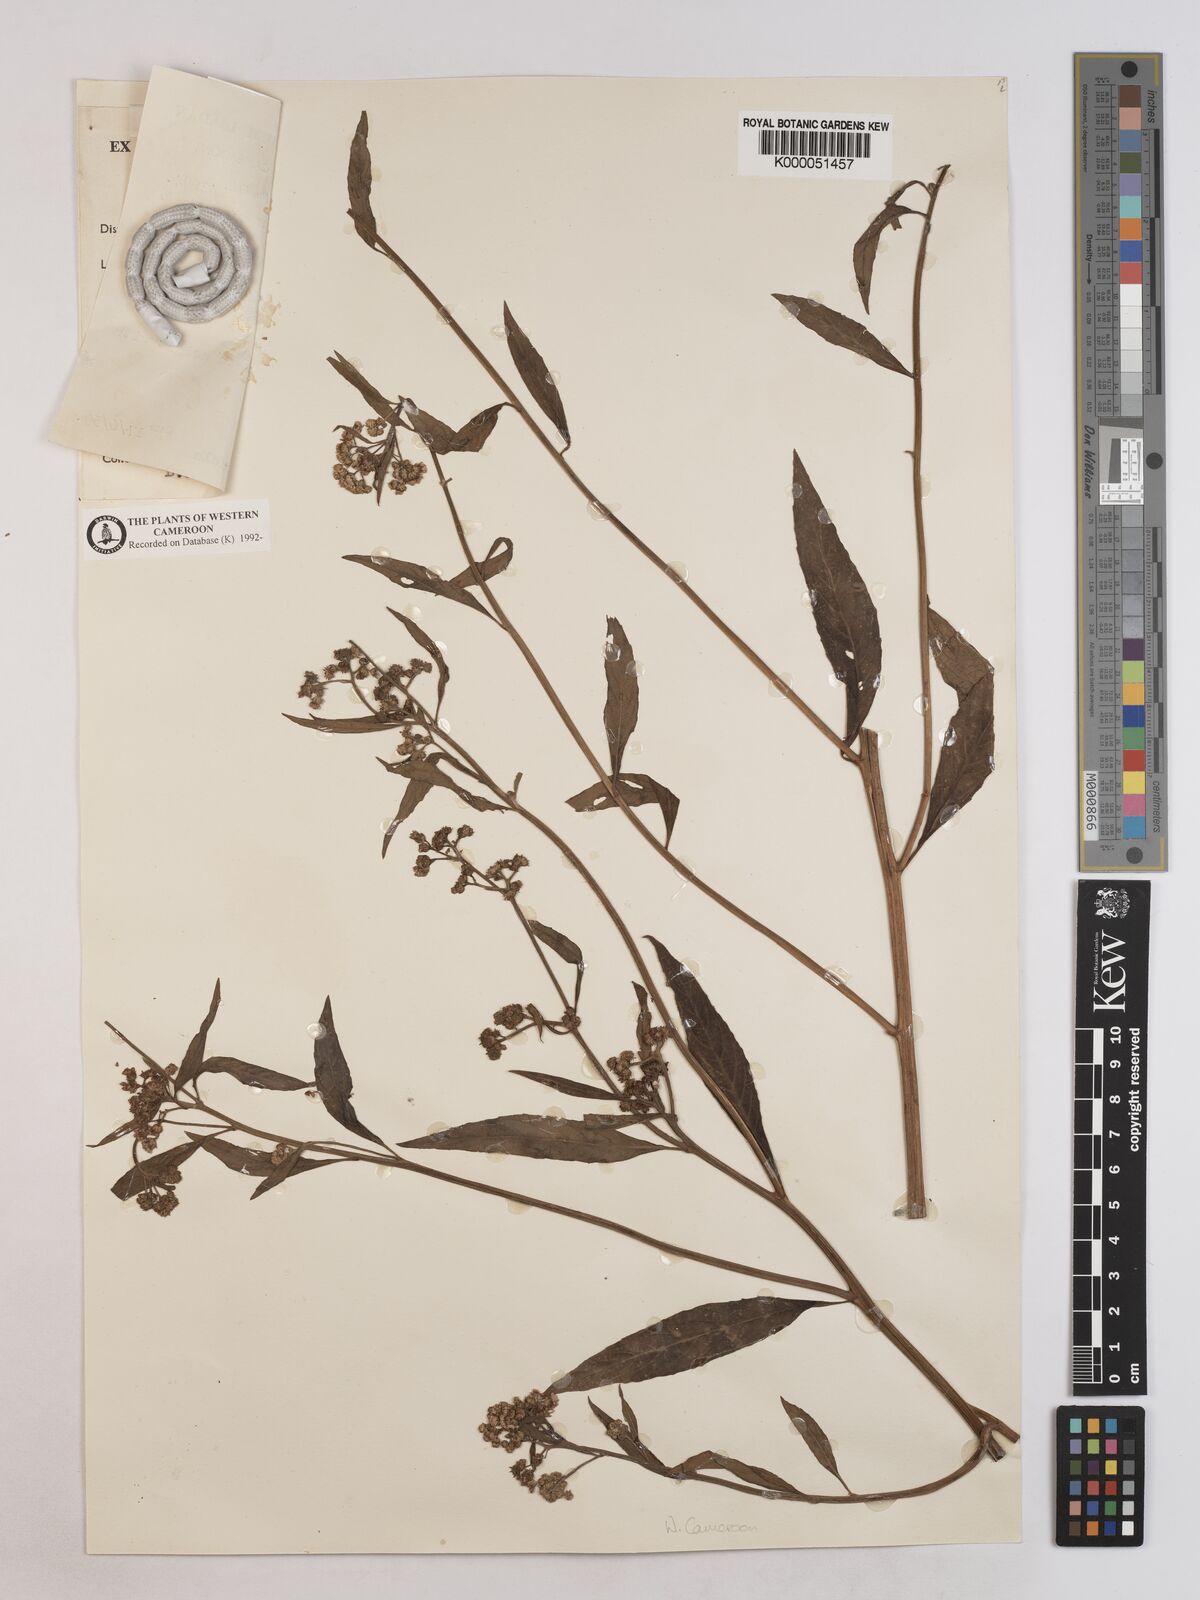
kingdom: Plantae
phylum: Tracheophyta
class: Magnoliopsida
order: Asterales
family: Asteraceae
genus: Ethulia
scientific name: Ethulia conyzoides
